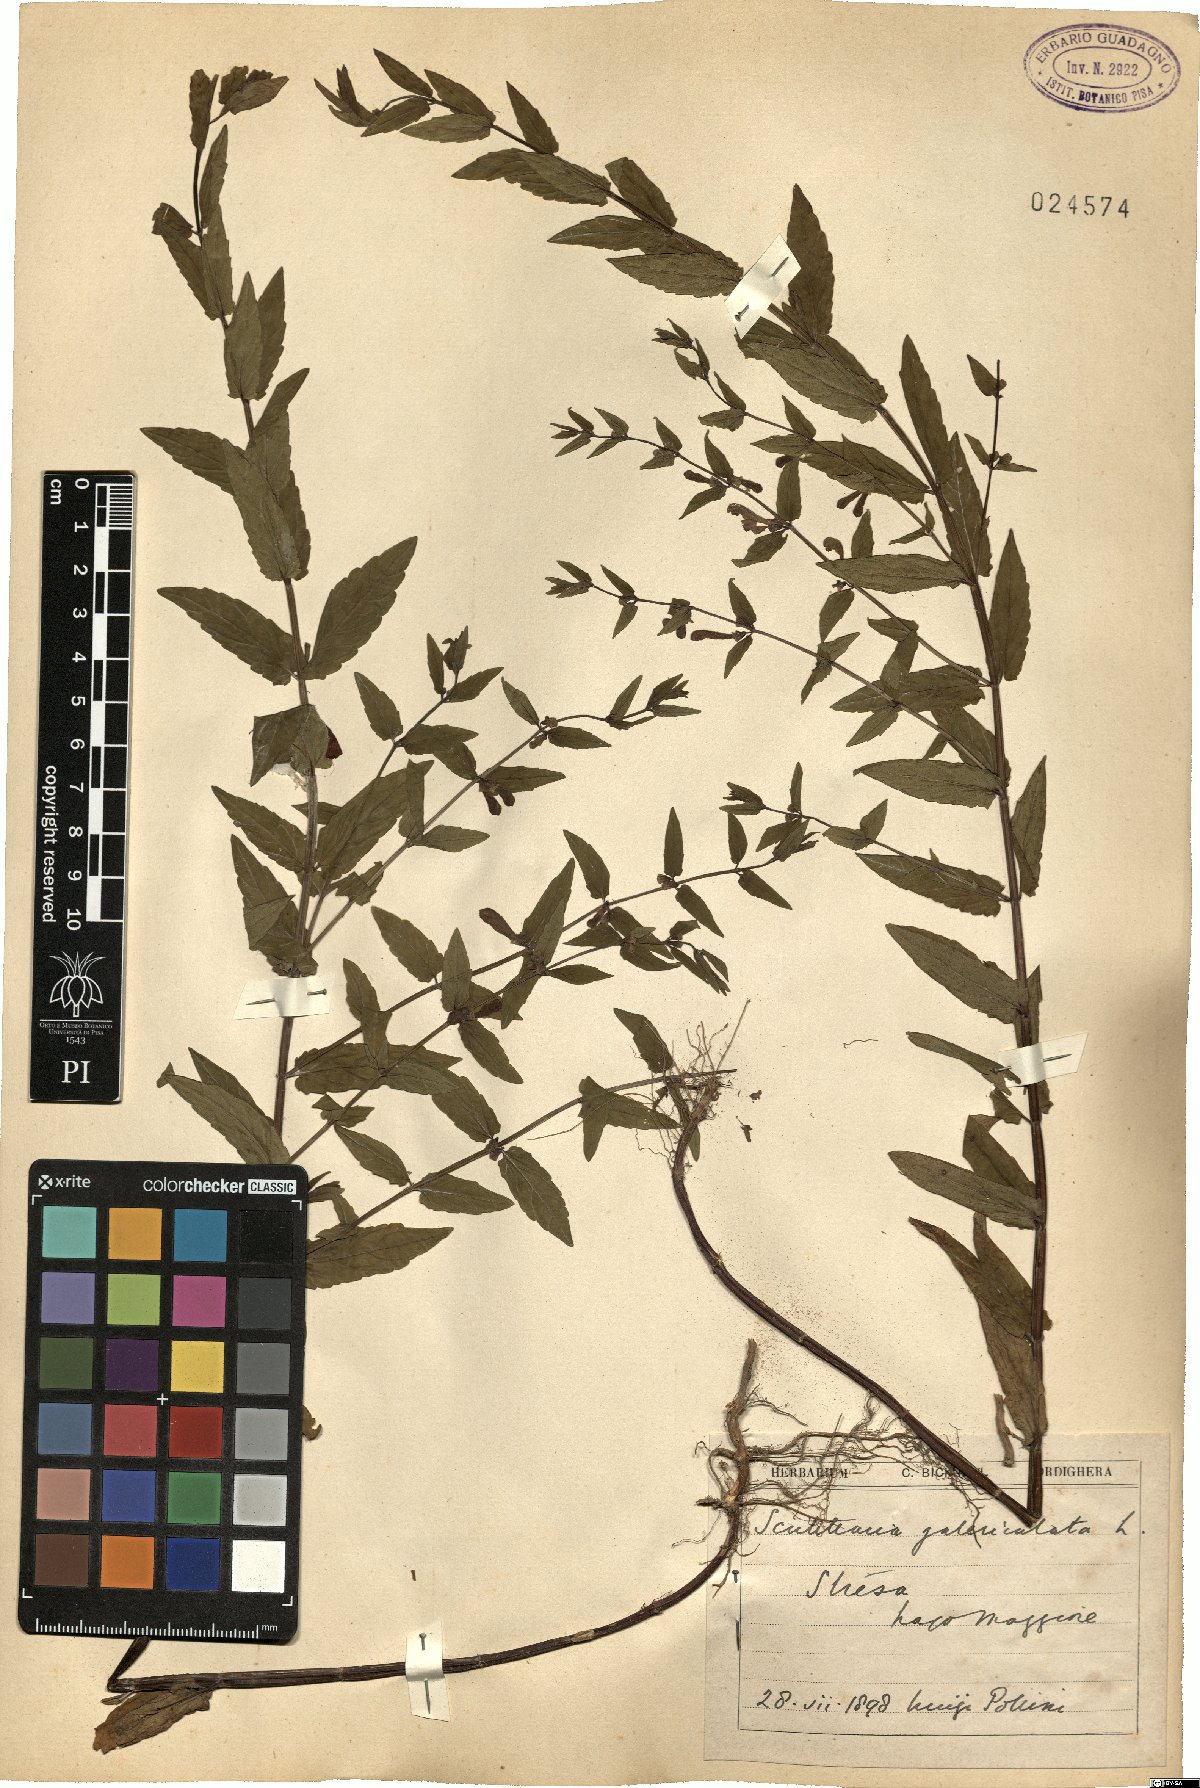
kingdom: Plantae
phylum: Tracheophyta
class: Magnoliopsida
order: Lamiales
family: Lamiaceae
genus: Scutellaria
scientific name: Scutellaria galericulata
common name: Skullcap
